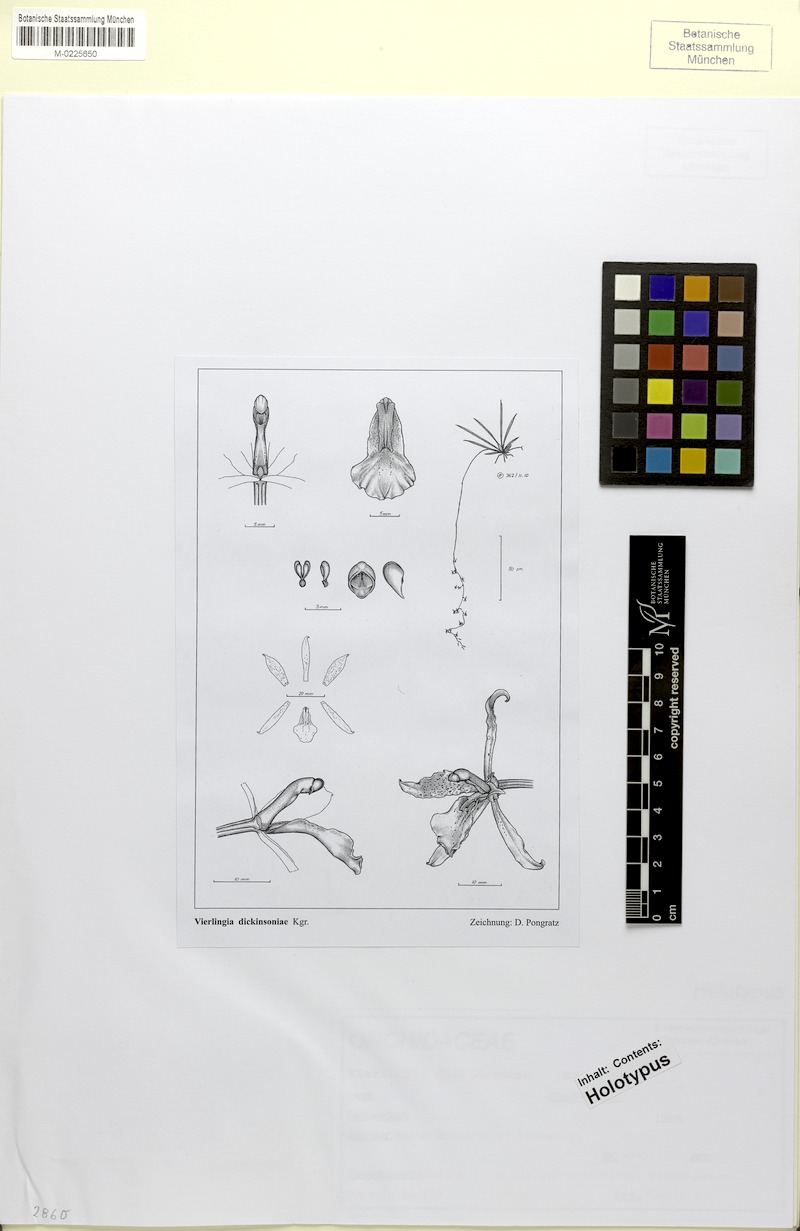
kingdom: Plantae
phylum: Tracheophyta
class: Liliopsida
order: Asparagales
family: Orchidaceae
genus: Cyrtochilum
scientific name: Cyrtochilum pardinum
